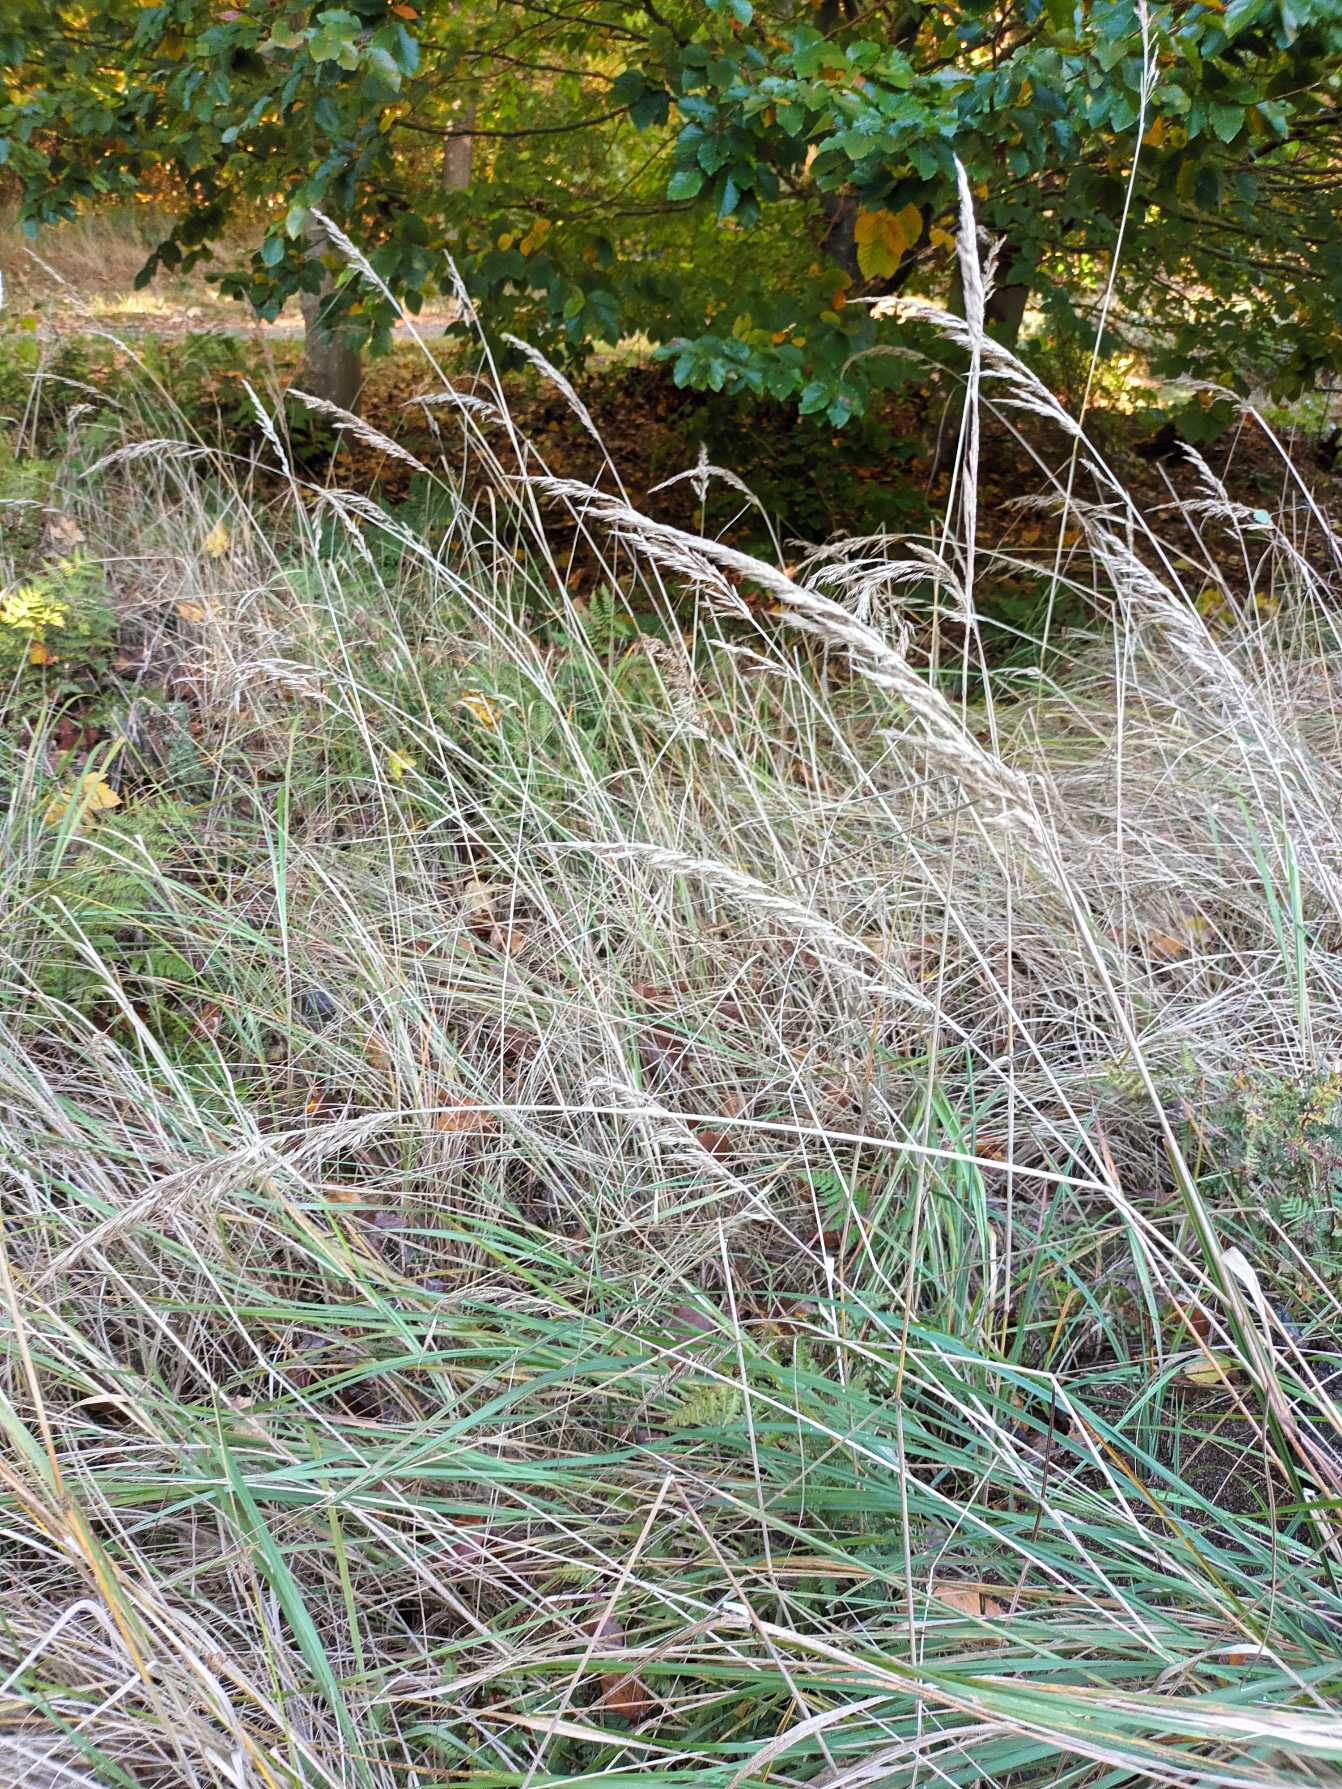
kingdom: Plantae
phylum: Tracheophyta
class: Liliopsida
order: Poales
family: Poaceae
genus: Calamagrostis
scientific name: Calamagrostis epigejos
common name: Bjerg-rørhvene
